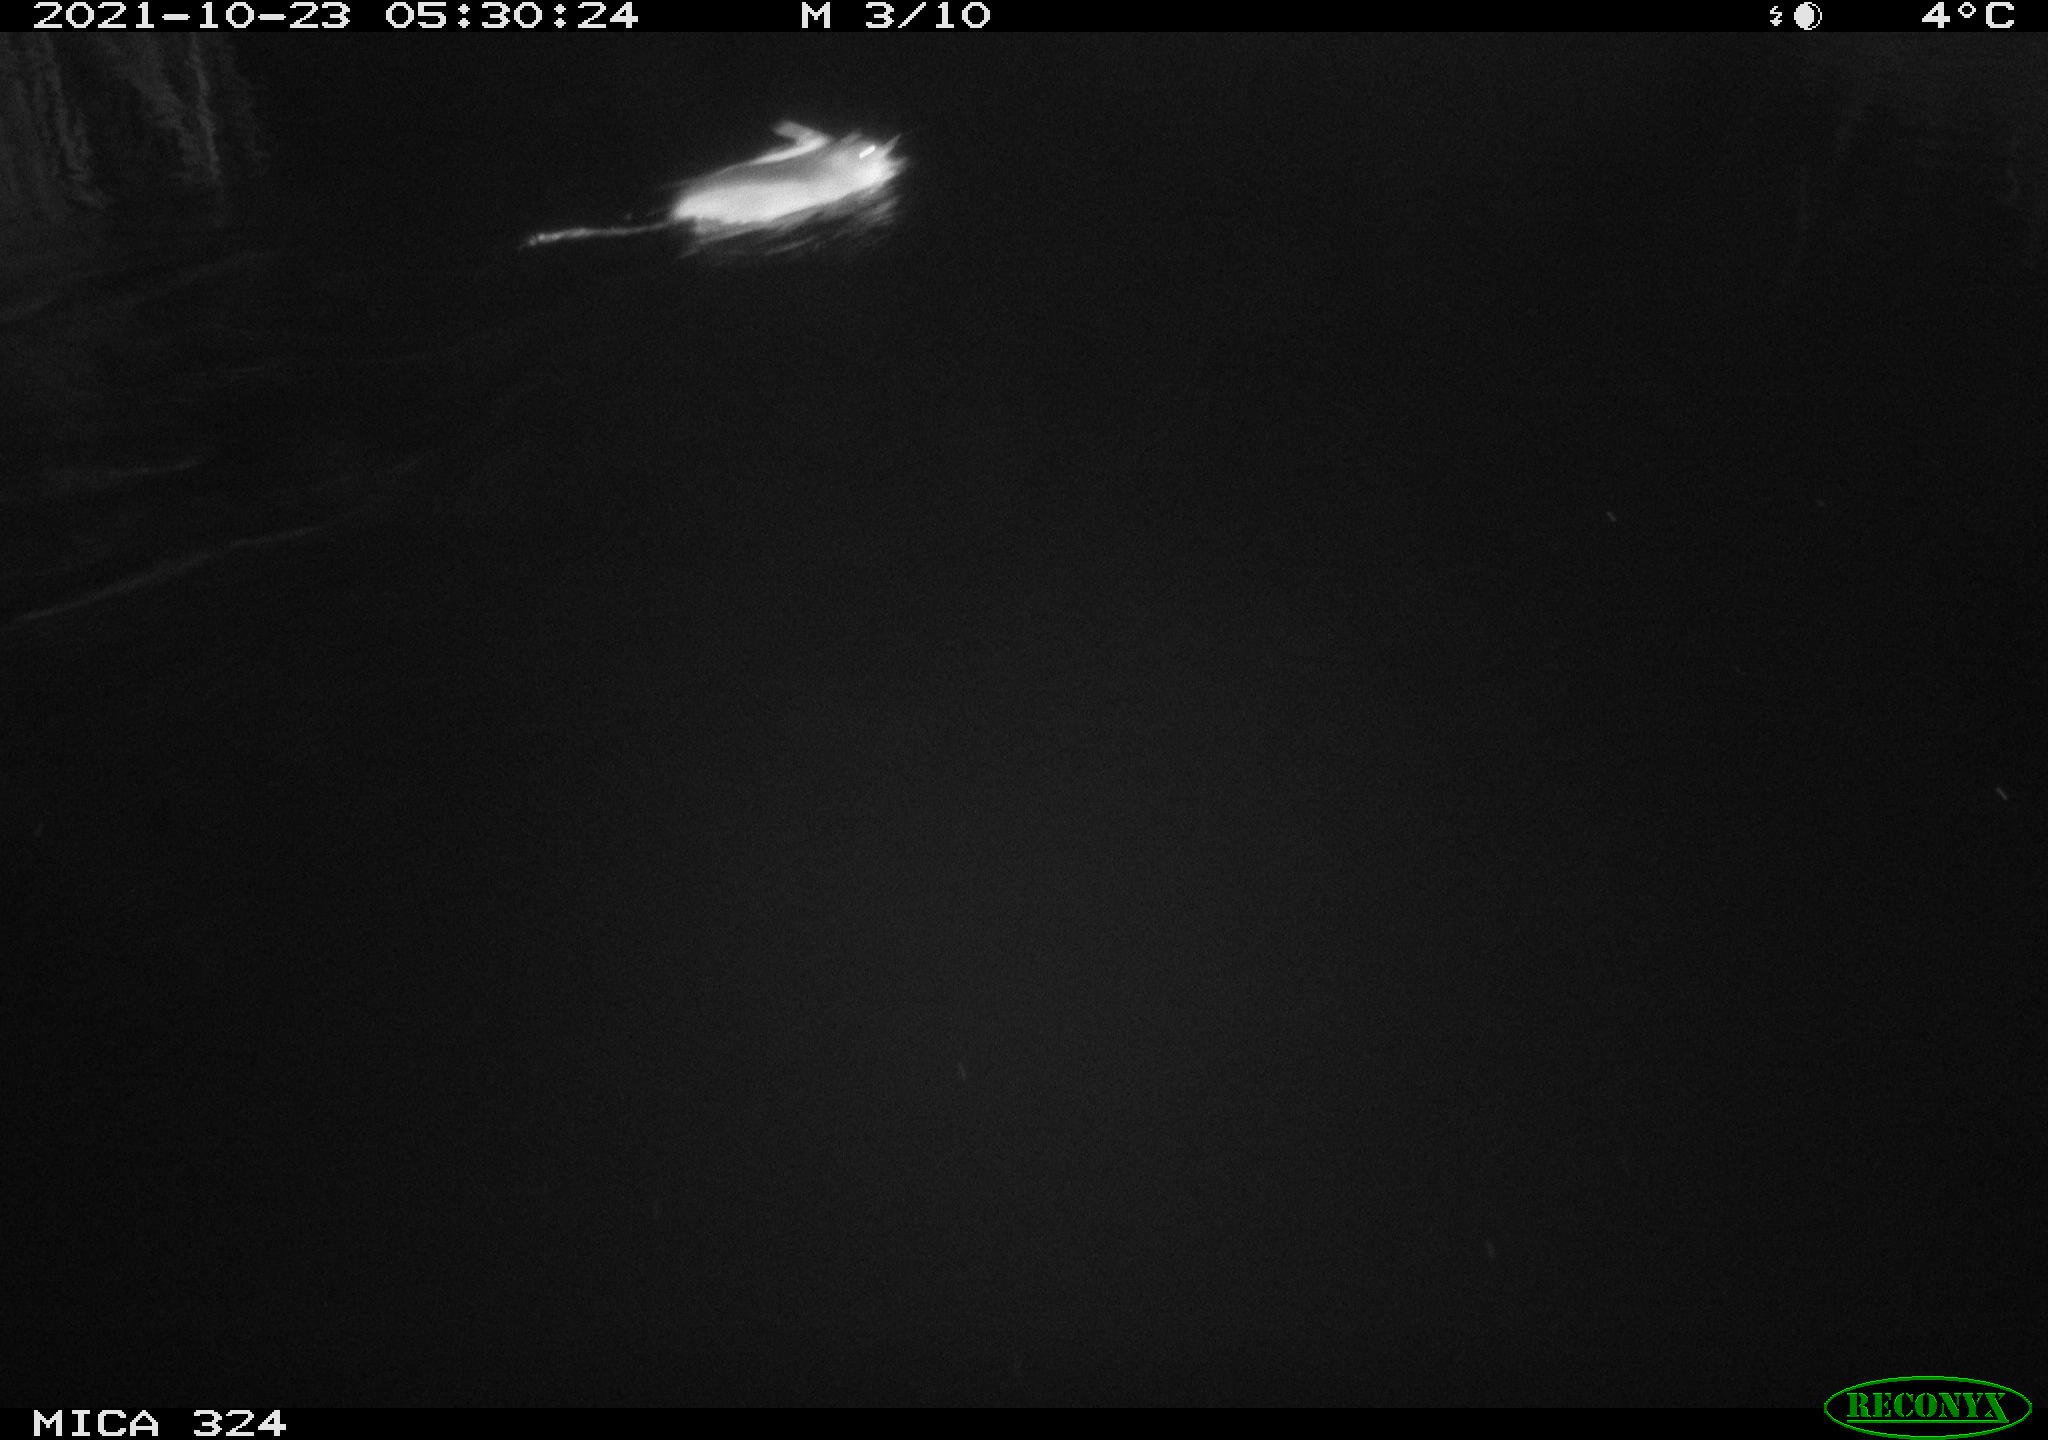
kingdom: Animalia
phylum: Chordata
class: Mammalia
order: Rodentia
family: Cricetidae
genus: Ondatra
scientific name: Ondatra zibethicus
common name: Muskrat
